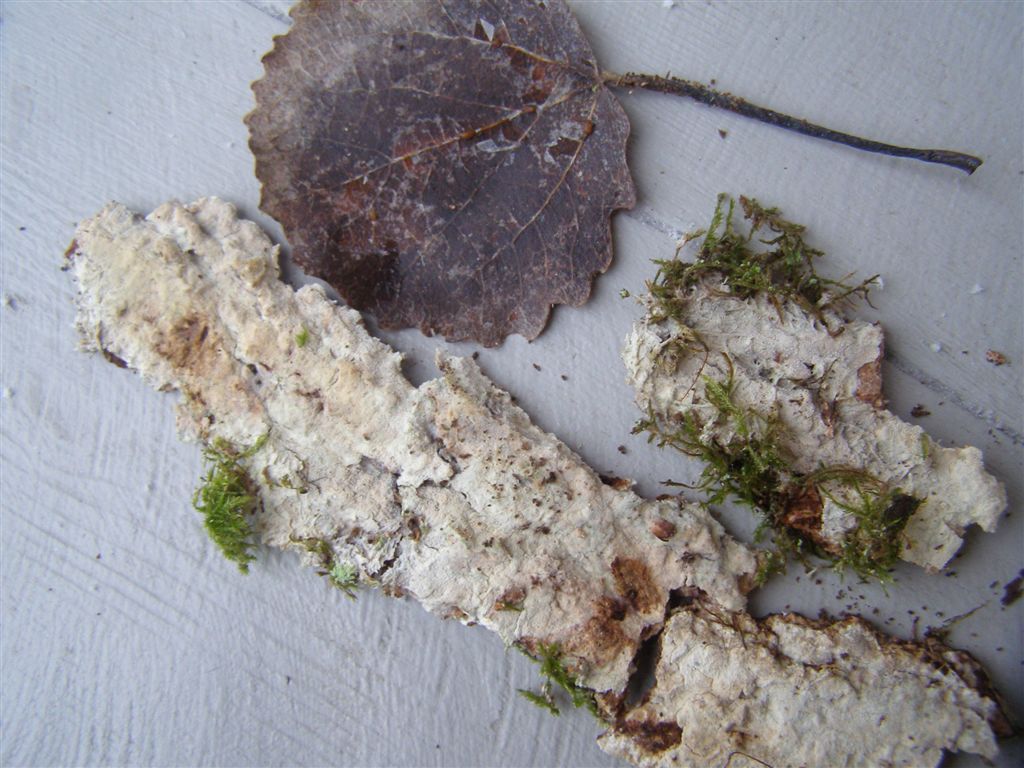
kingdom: Fungi
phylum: Basidiomycota
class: Agaricomycetes
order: Hymenochaetales
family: Rickenellaceae
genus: Resinicium
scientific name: Resinicium bicolor
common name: almindelig vokstand
